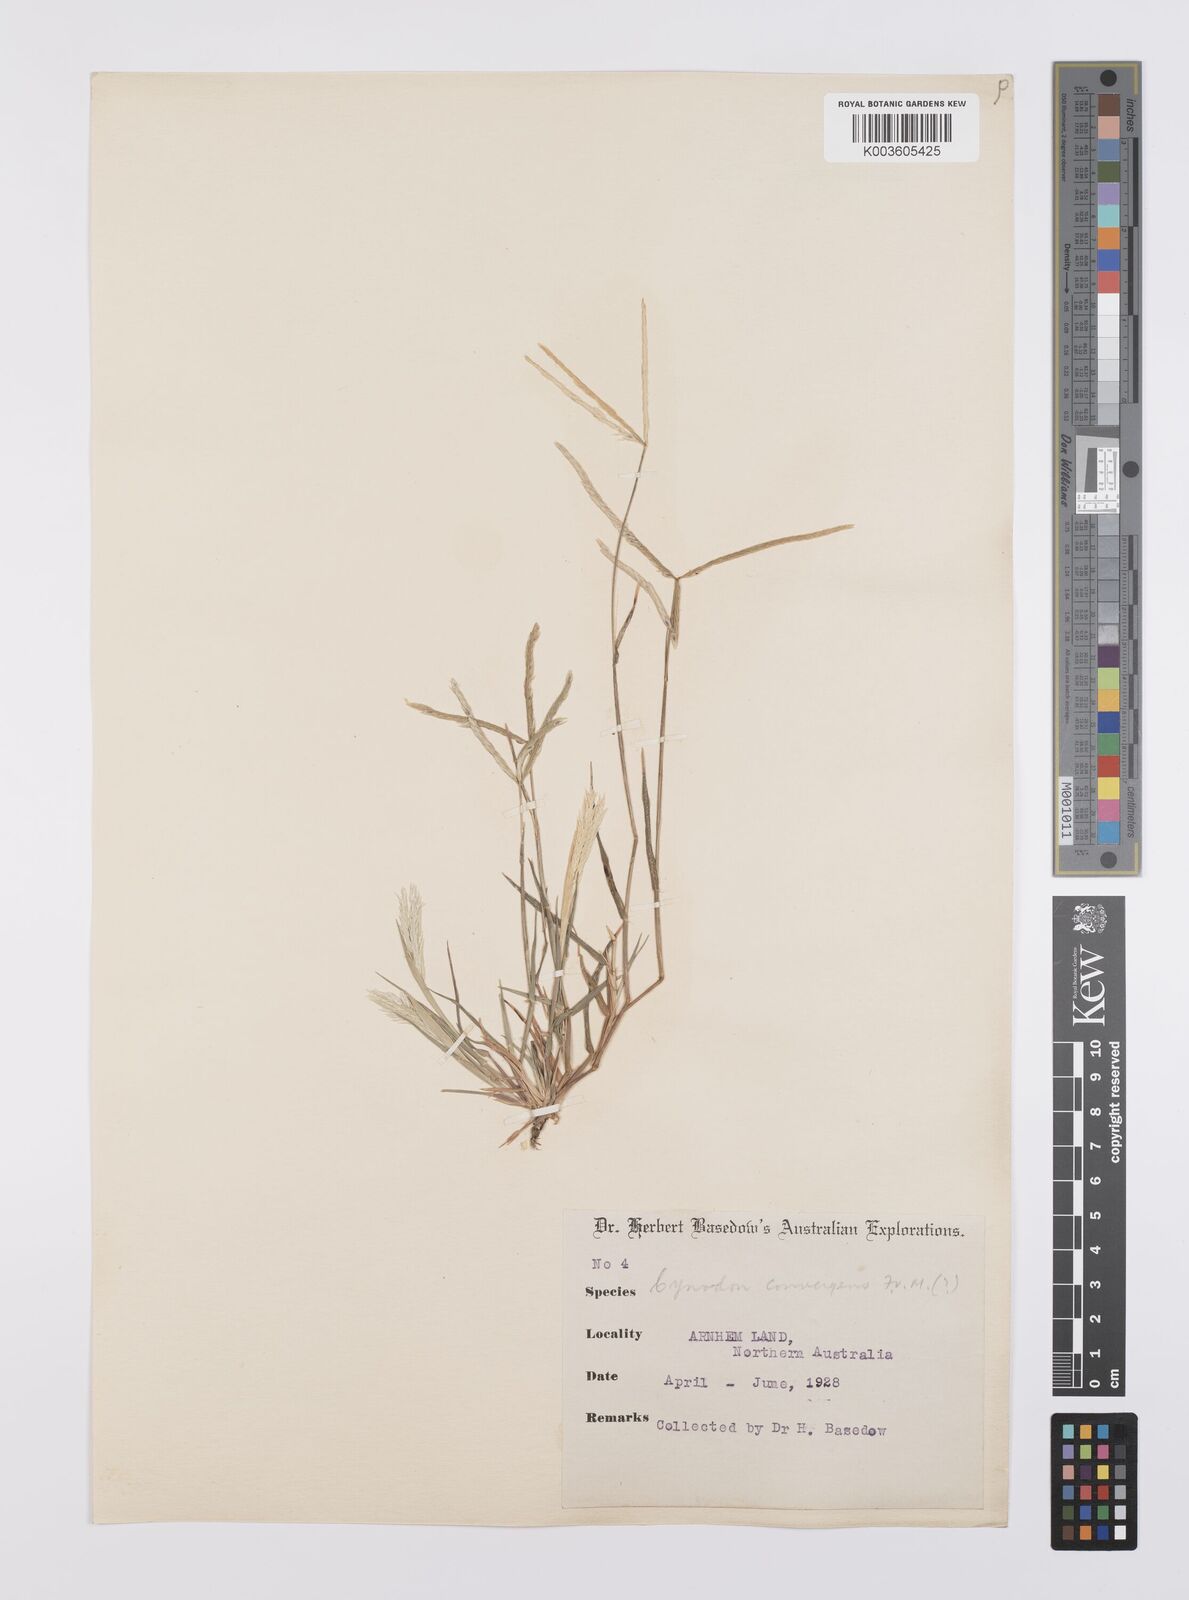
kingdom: Plantae
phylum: Tracheophyta
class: Liliopsida
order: Poales
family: Poaceae
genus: Cynodon
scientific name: Cynodon convergens
